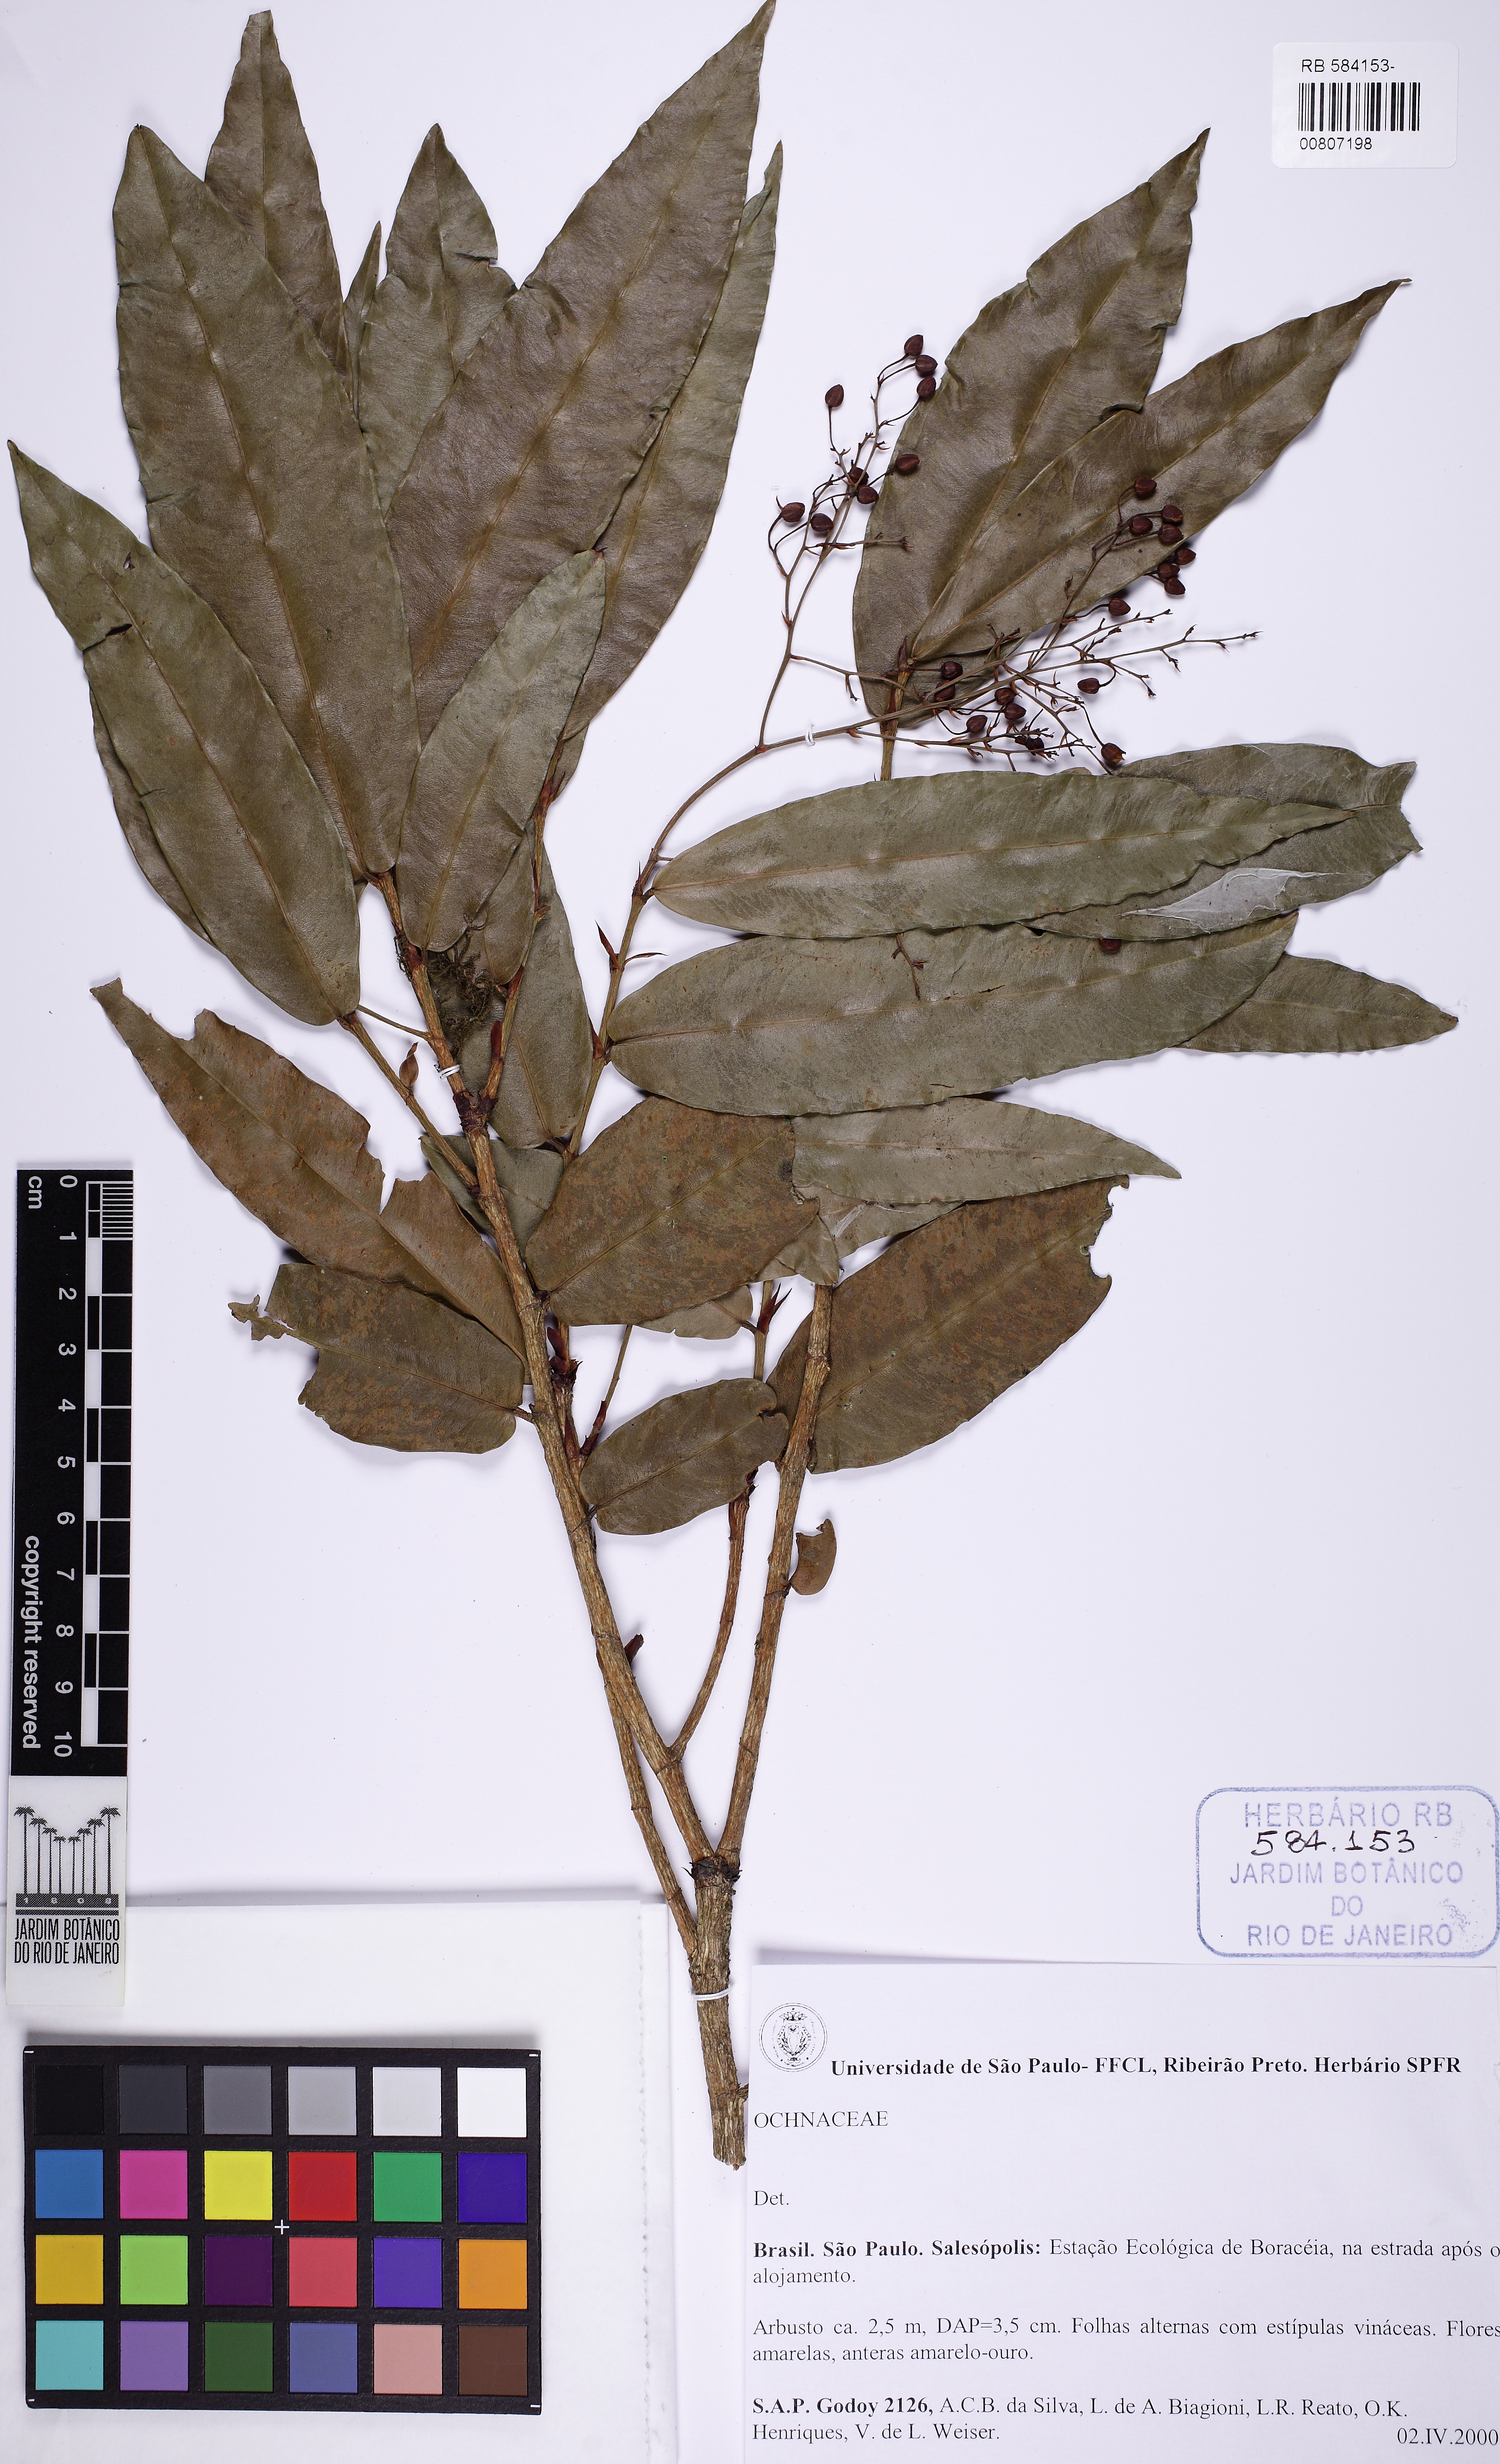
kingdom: Plantae
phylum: Tracheophyta
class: Magnoliopsida
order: Malpighiales
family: Ochnaceae
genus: Ouratea
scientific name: Ouratea
